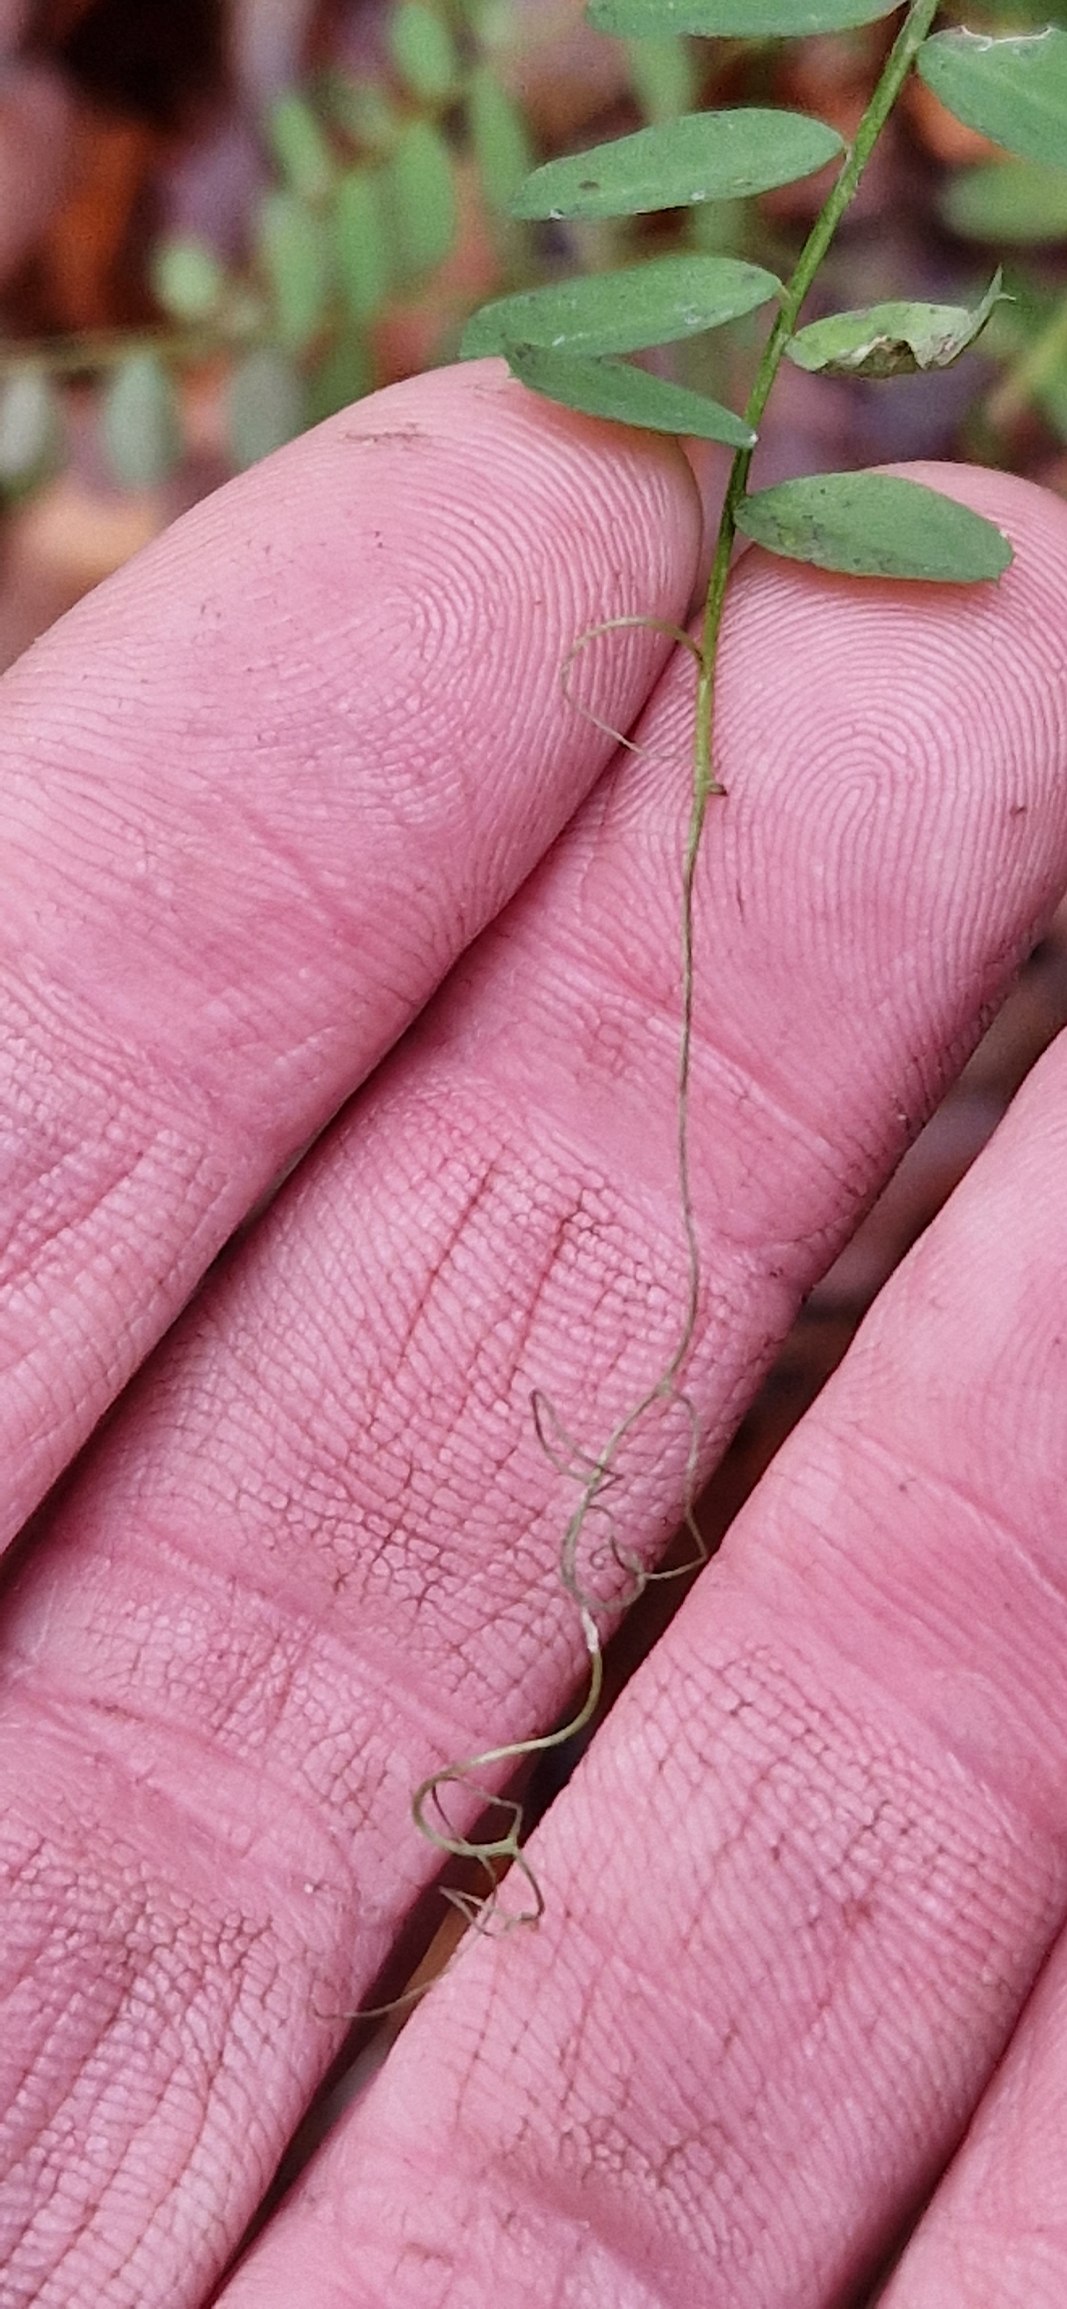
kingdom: Plantae
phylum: Tracheophyta
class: Magnoliopsida
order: Fabales
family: Fabaceae
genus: Vicia
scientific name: Vicia sylvatica
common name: Skov-vikke
